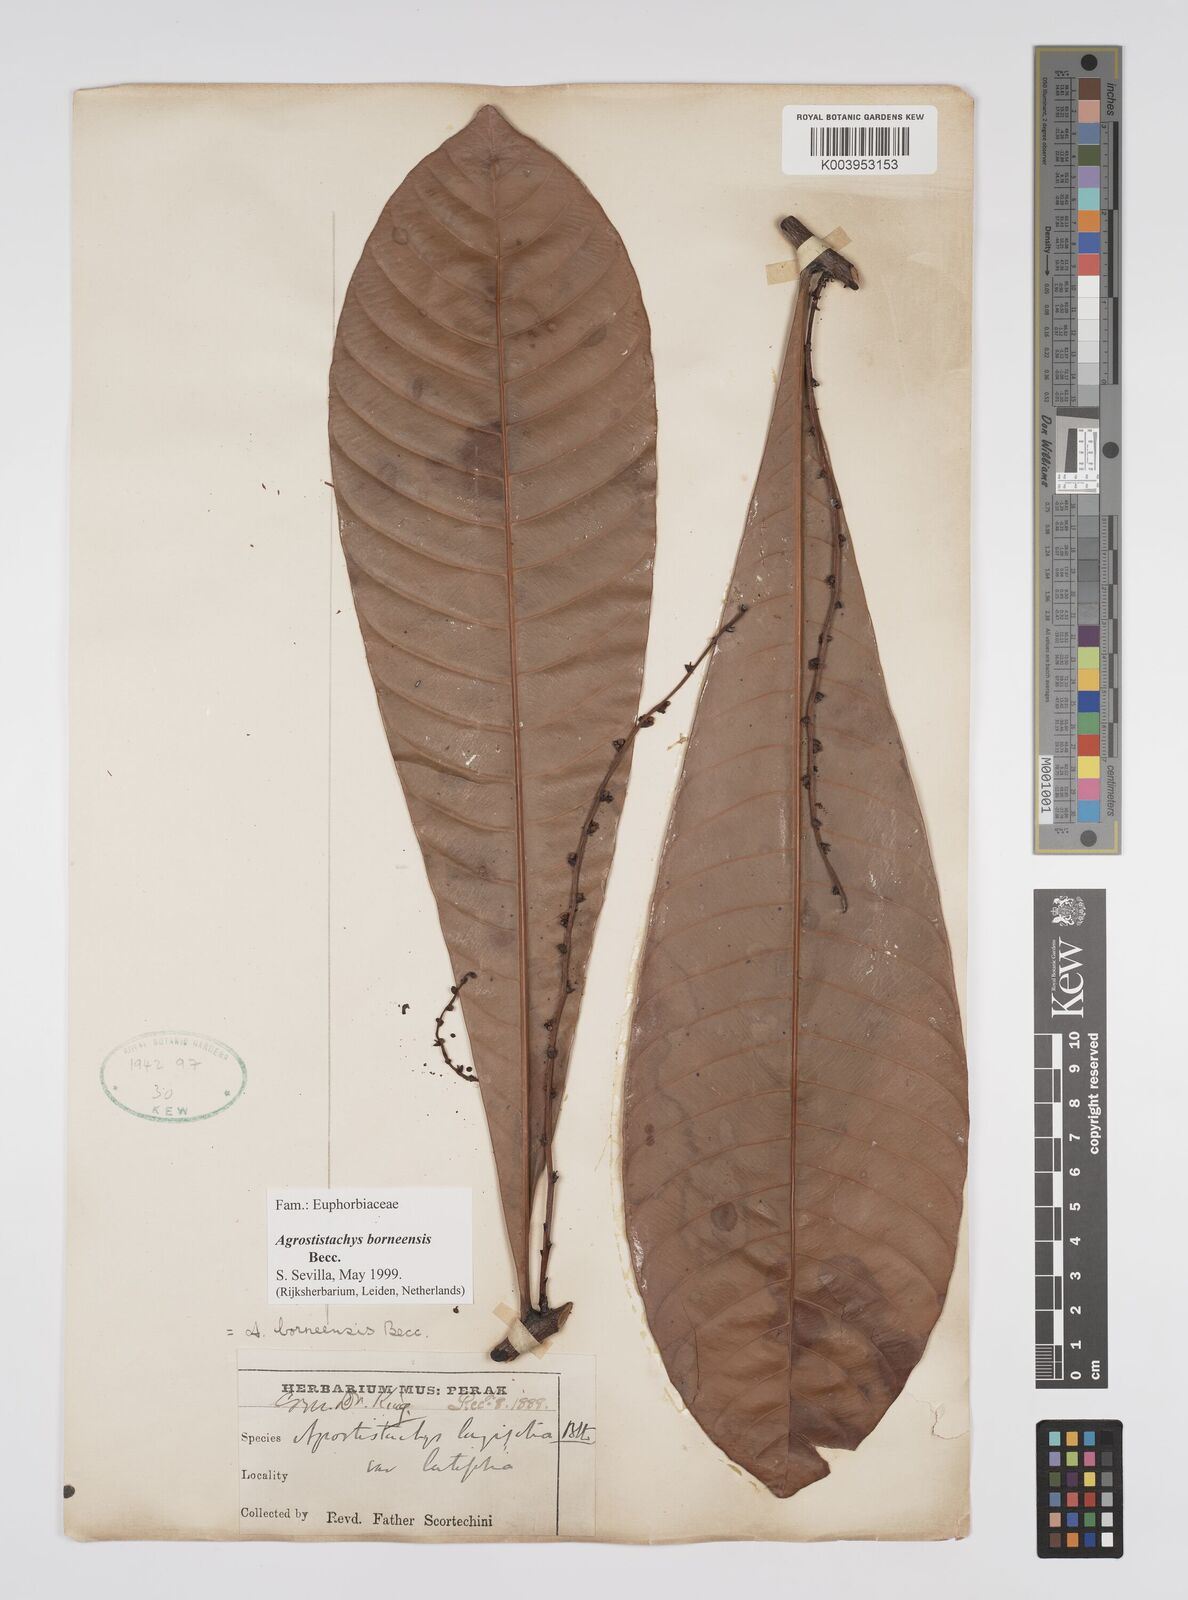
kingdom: Plantae
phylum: Tracheophyta
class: Magnoliopsida
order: Malpighiales
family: Euphorbiaceae
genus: Agrostistachys
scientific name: Agrostistachys borneensis
